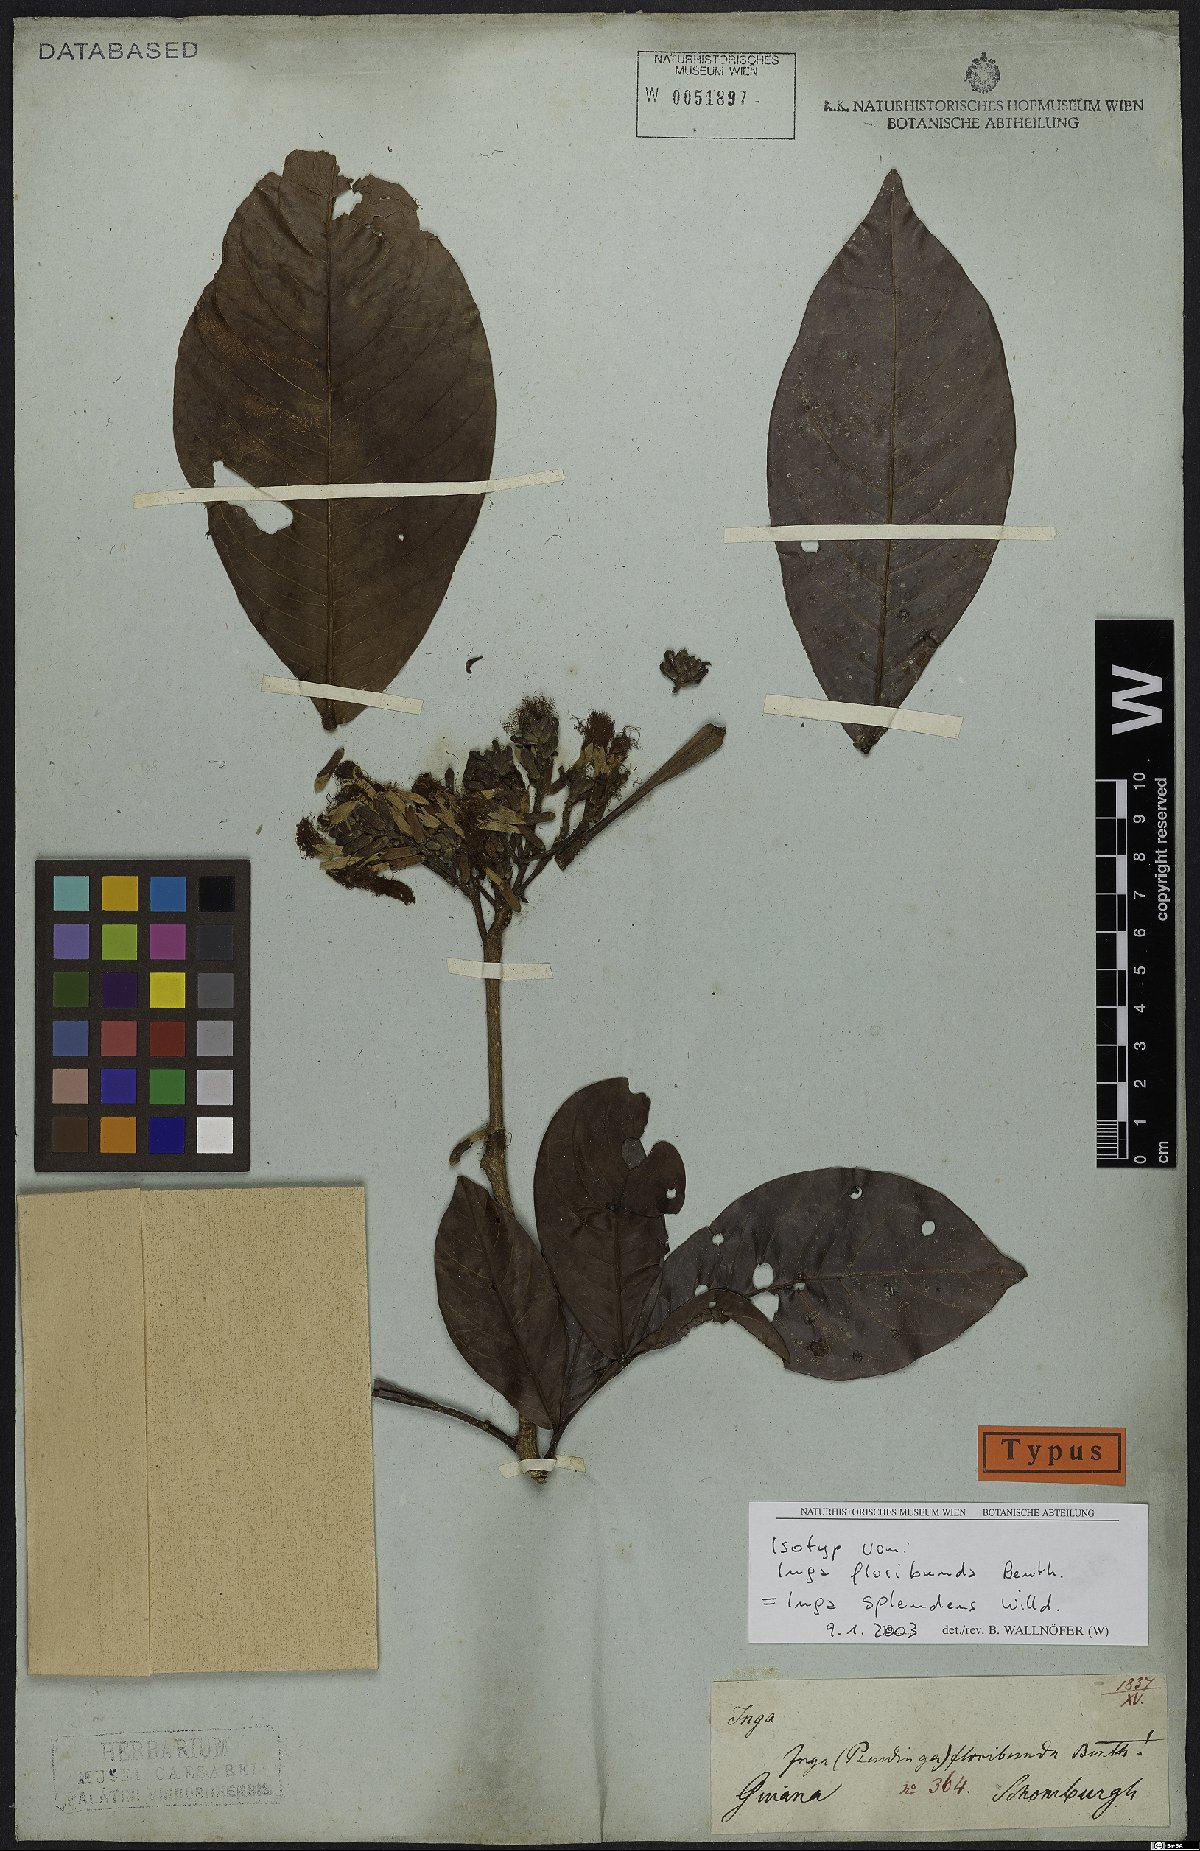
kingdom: Plantae
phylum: Tracheophyta
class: Magnoliopsida
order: Fabales
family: Fabaceae
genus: Inga
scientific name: Inga splendens
